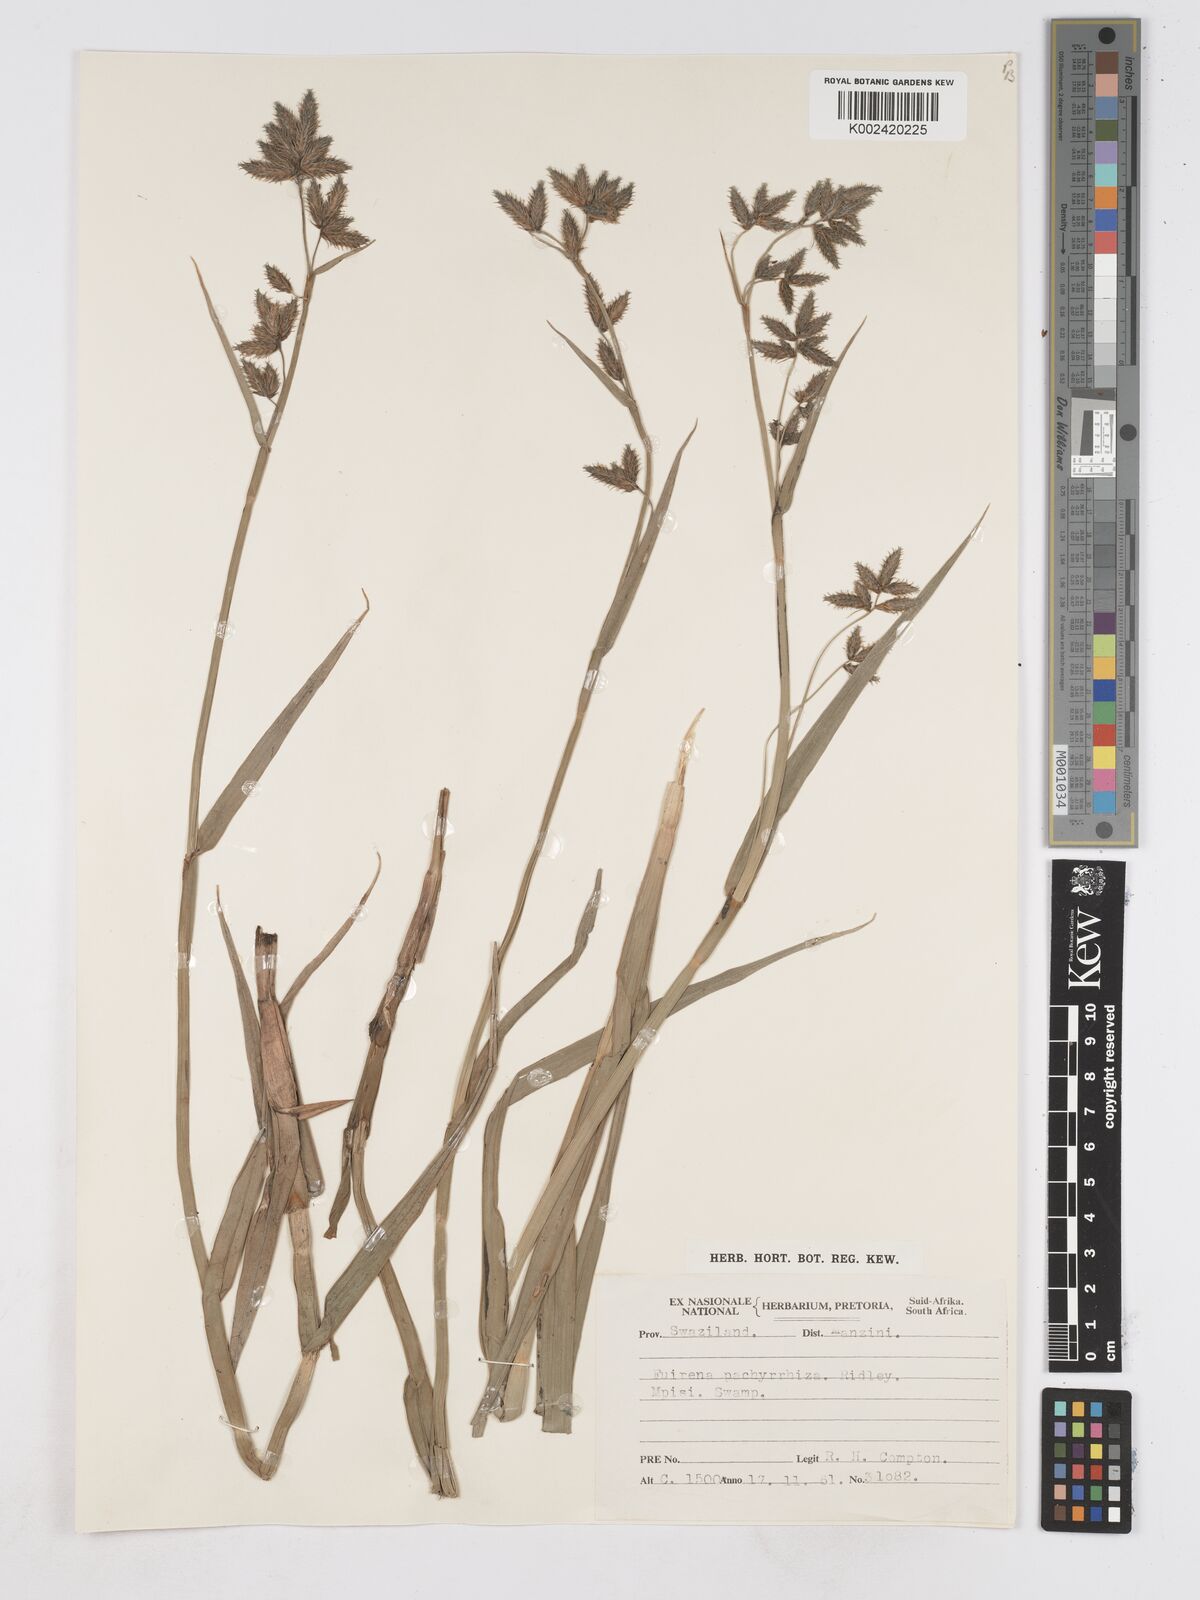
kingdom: Plantae
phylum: Tracheophyta
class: Liliopsida
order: Poales
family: Cyperaceae
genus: Fuirena
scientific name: Fuirena pachyrrhiza
